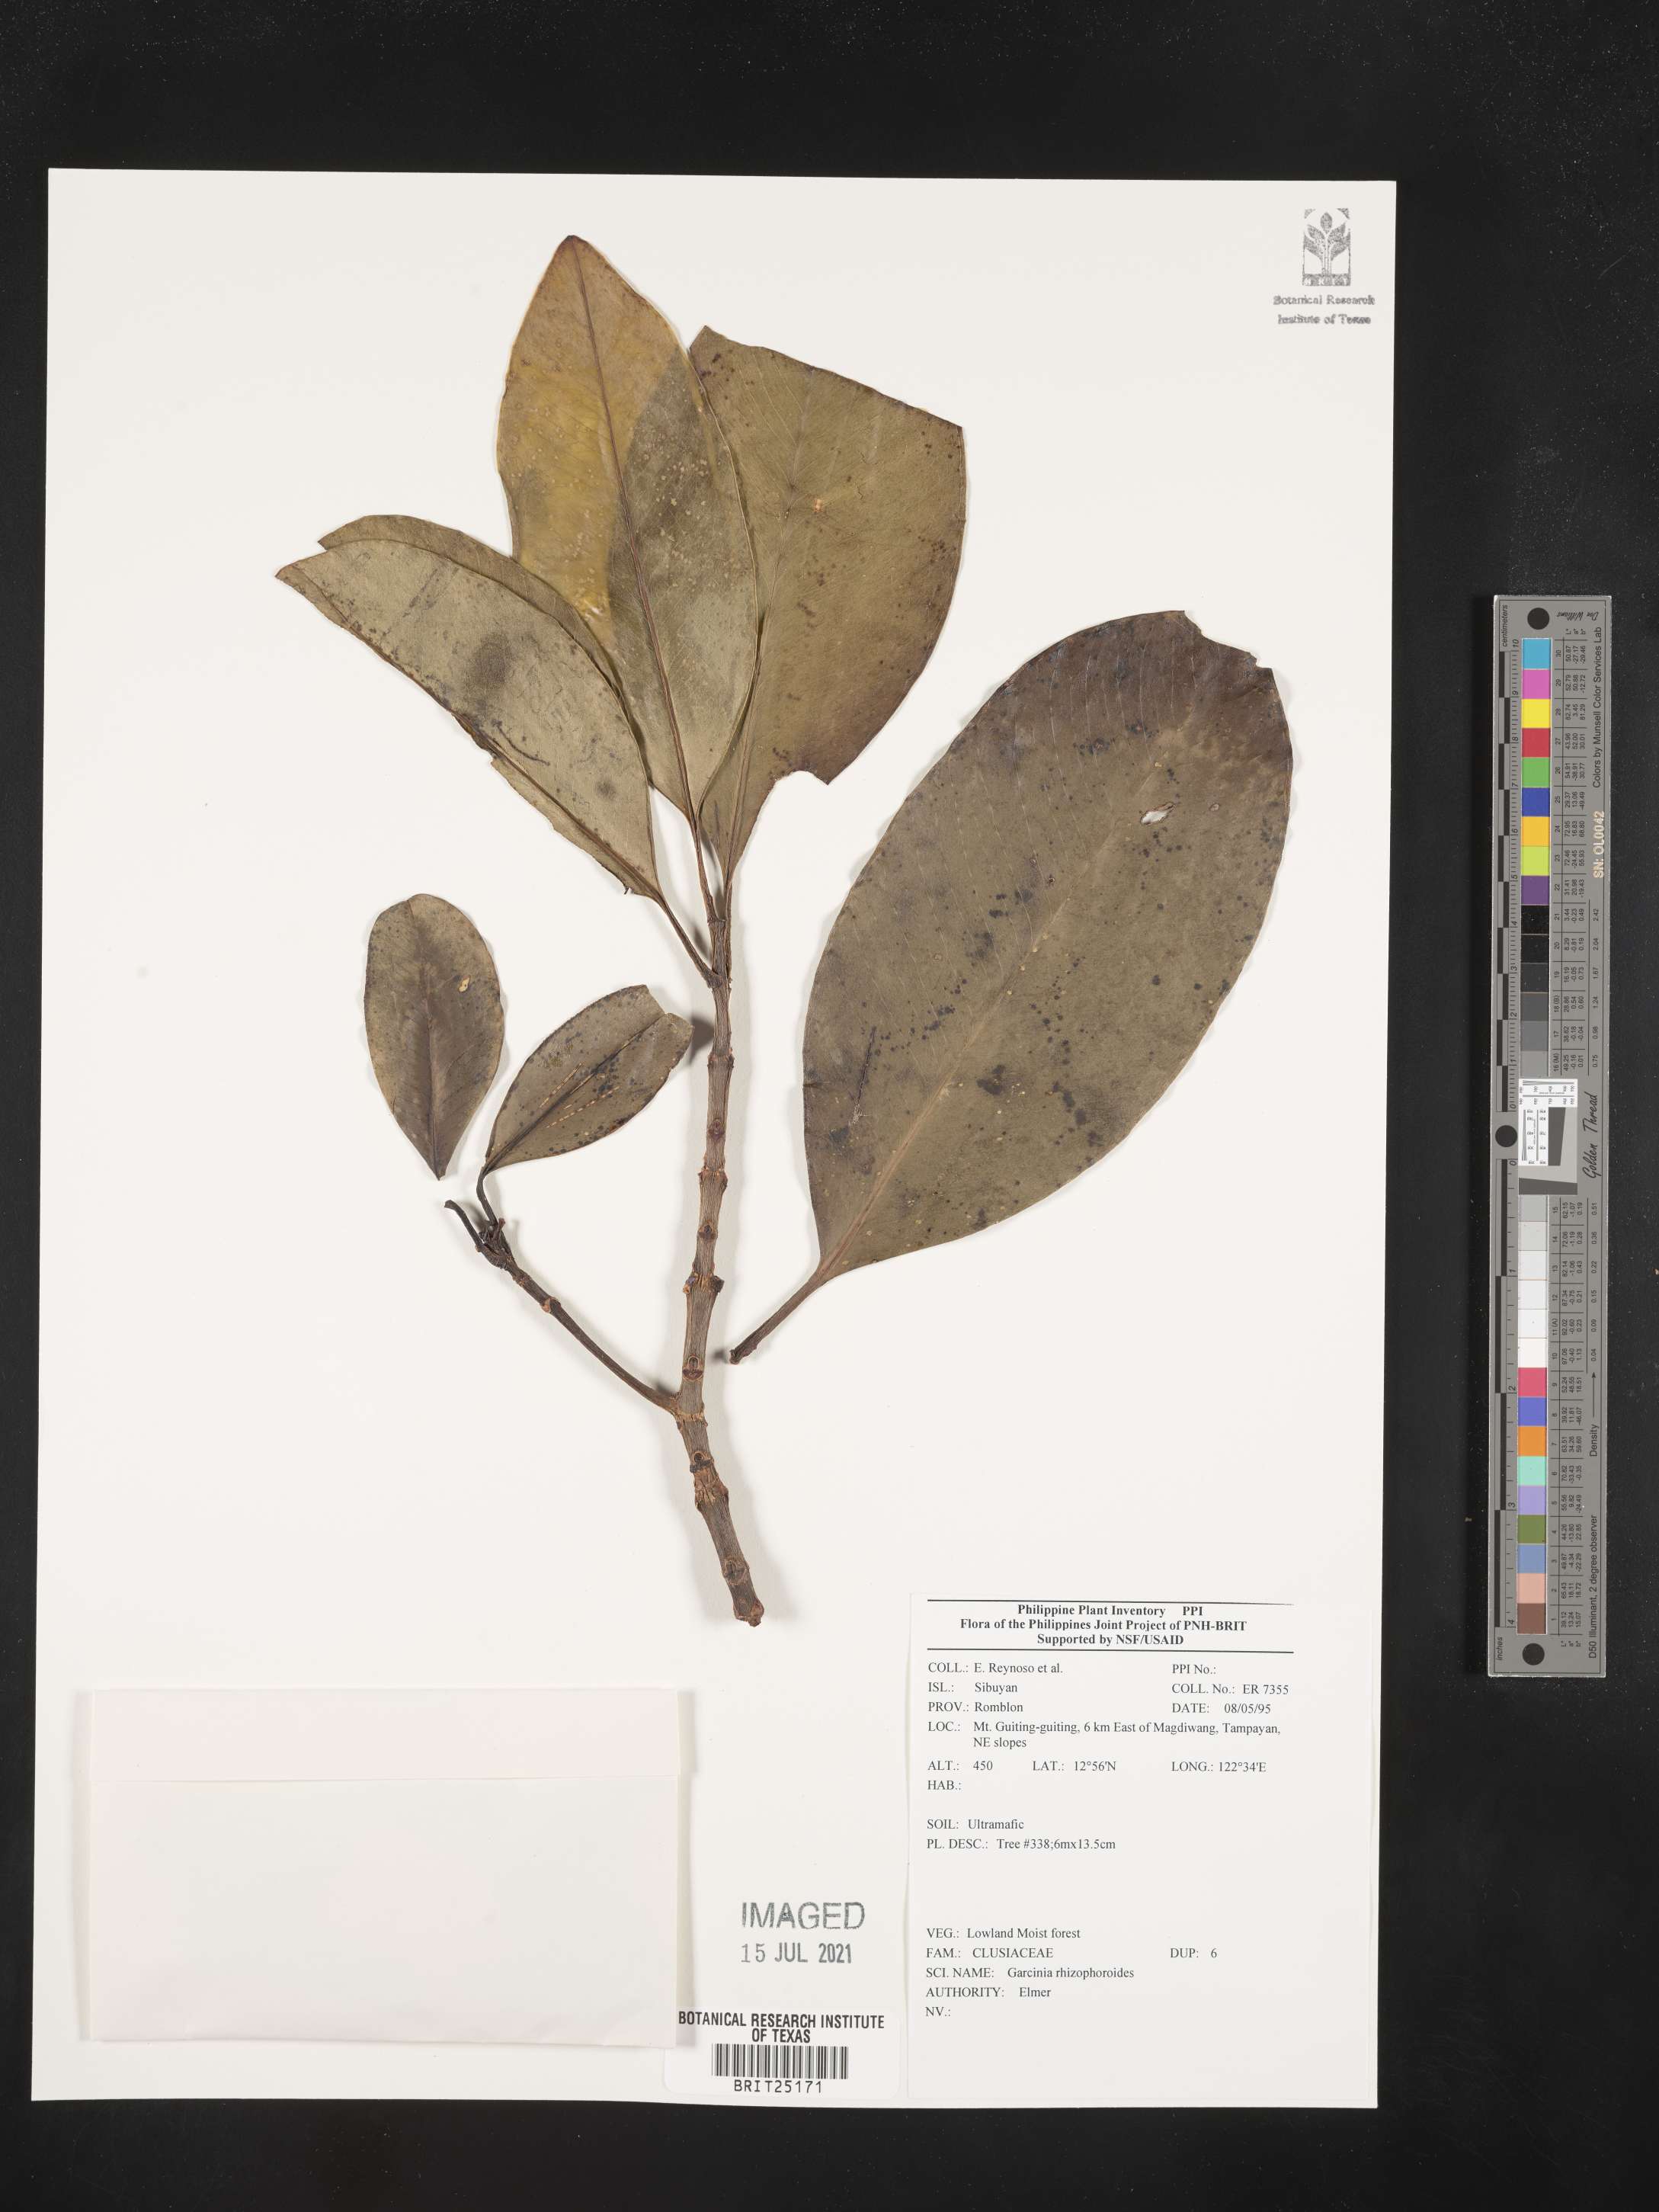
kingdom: Plantae
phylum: Tracheophyta
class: Magnoliopsida
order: Malpighiales
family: Clusiaceae
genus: Garcinia
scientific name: Garcinia rhizophoroides
